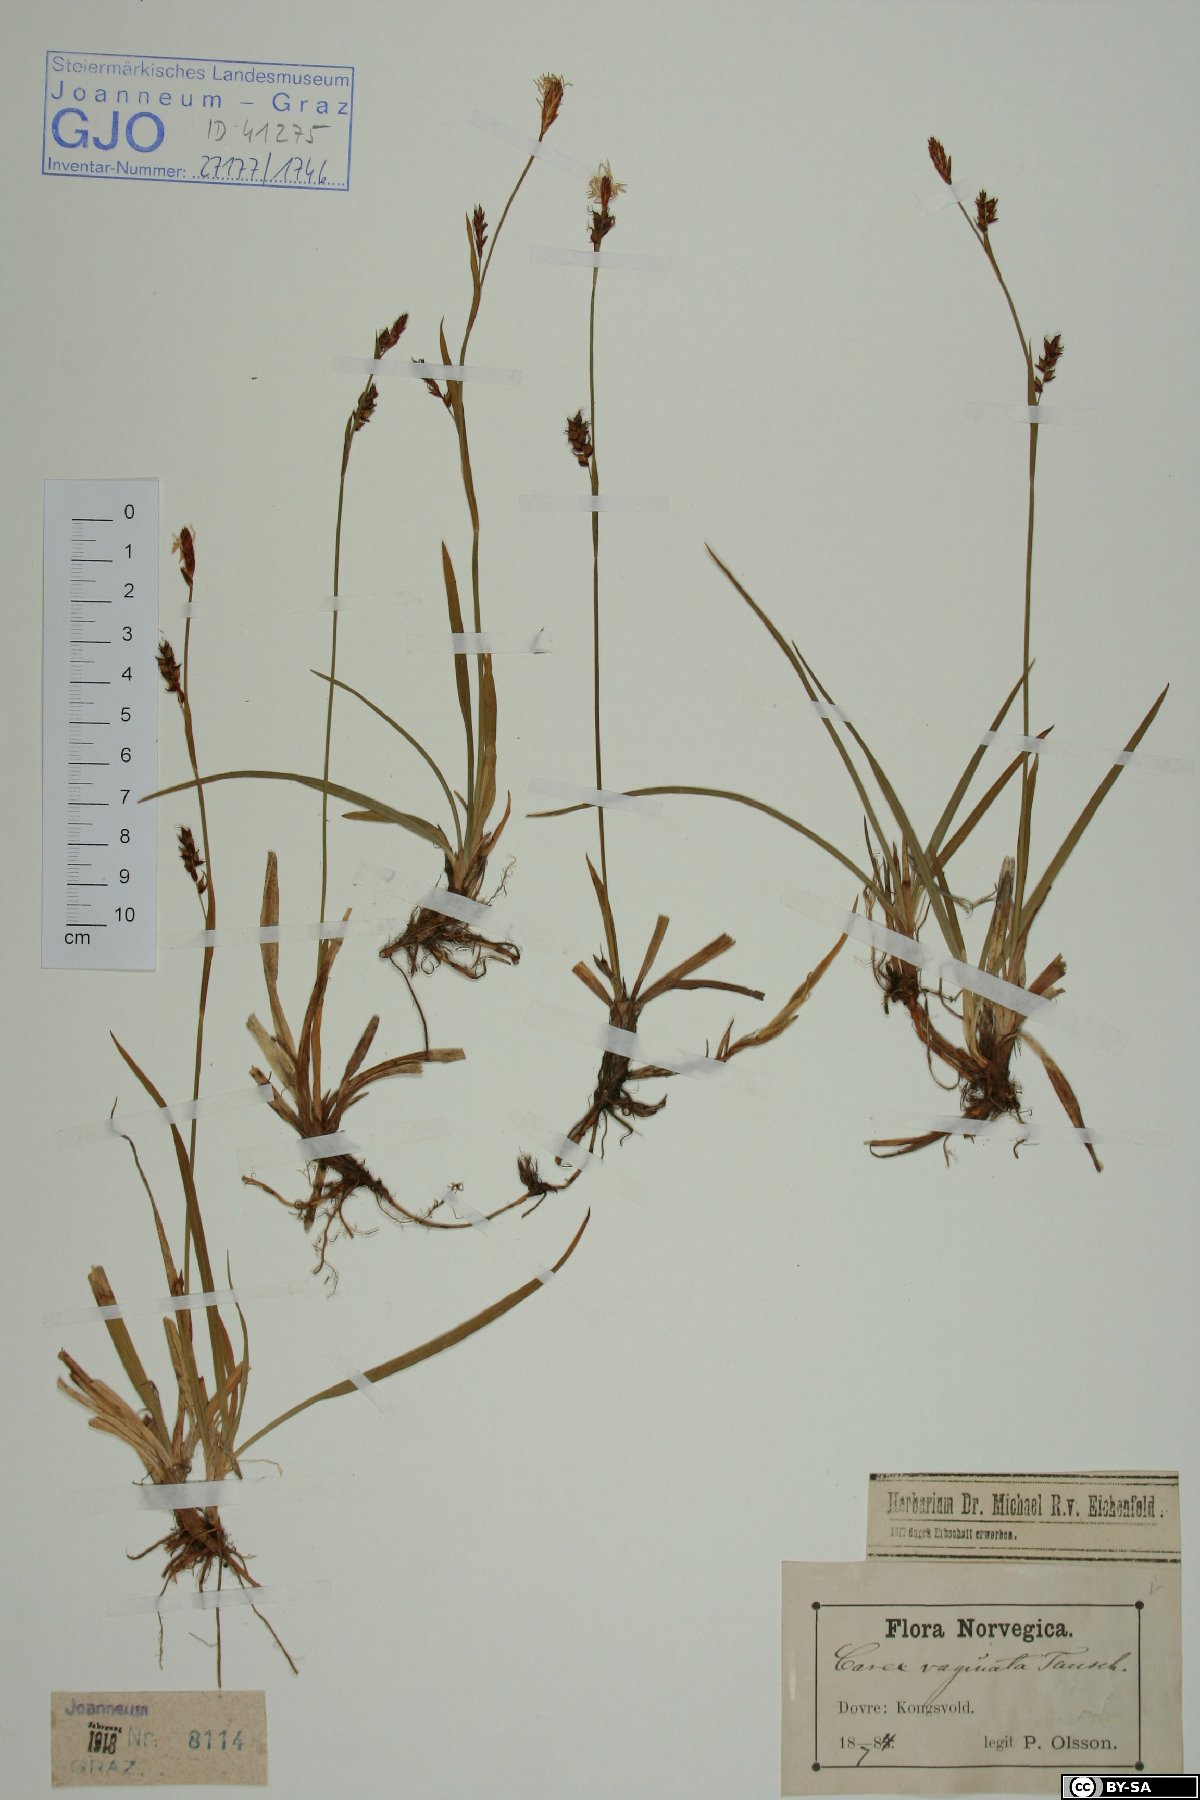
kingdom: Plantae
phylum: Tracheophyta
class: Liliopsida
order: Poales
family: Cyperaceae
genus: Carex
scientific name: Carex vaginata
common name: Sheathed sedge
